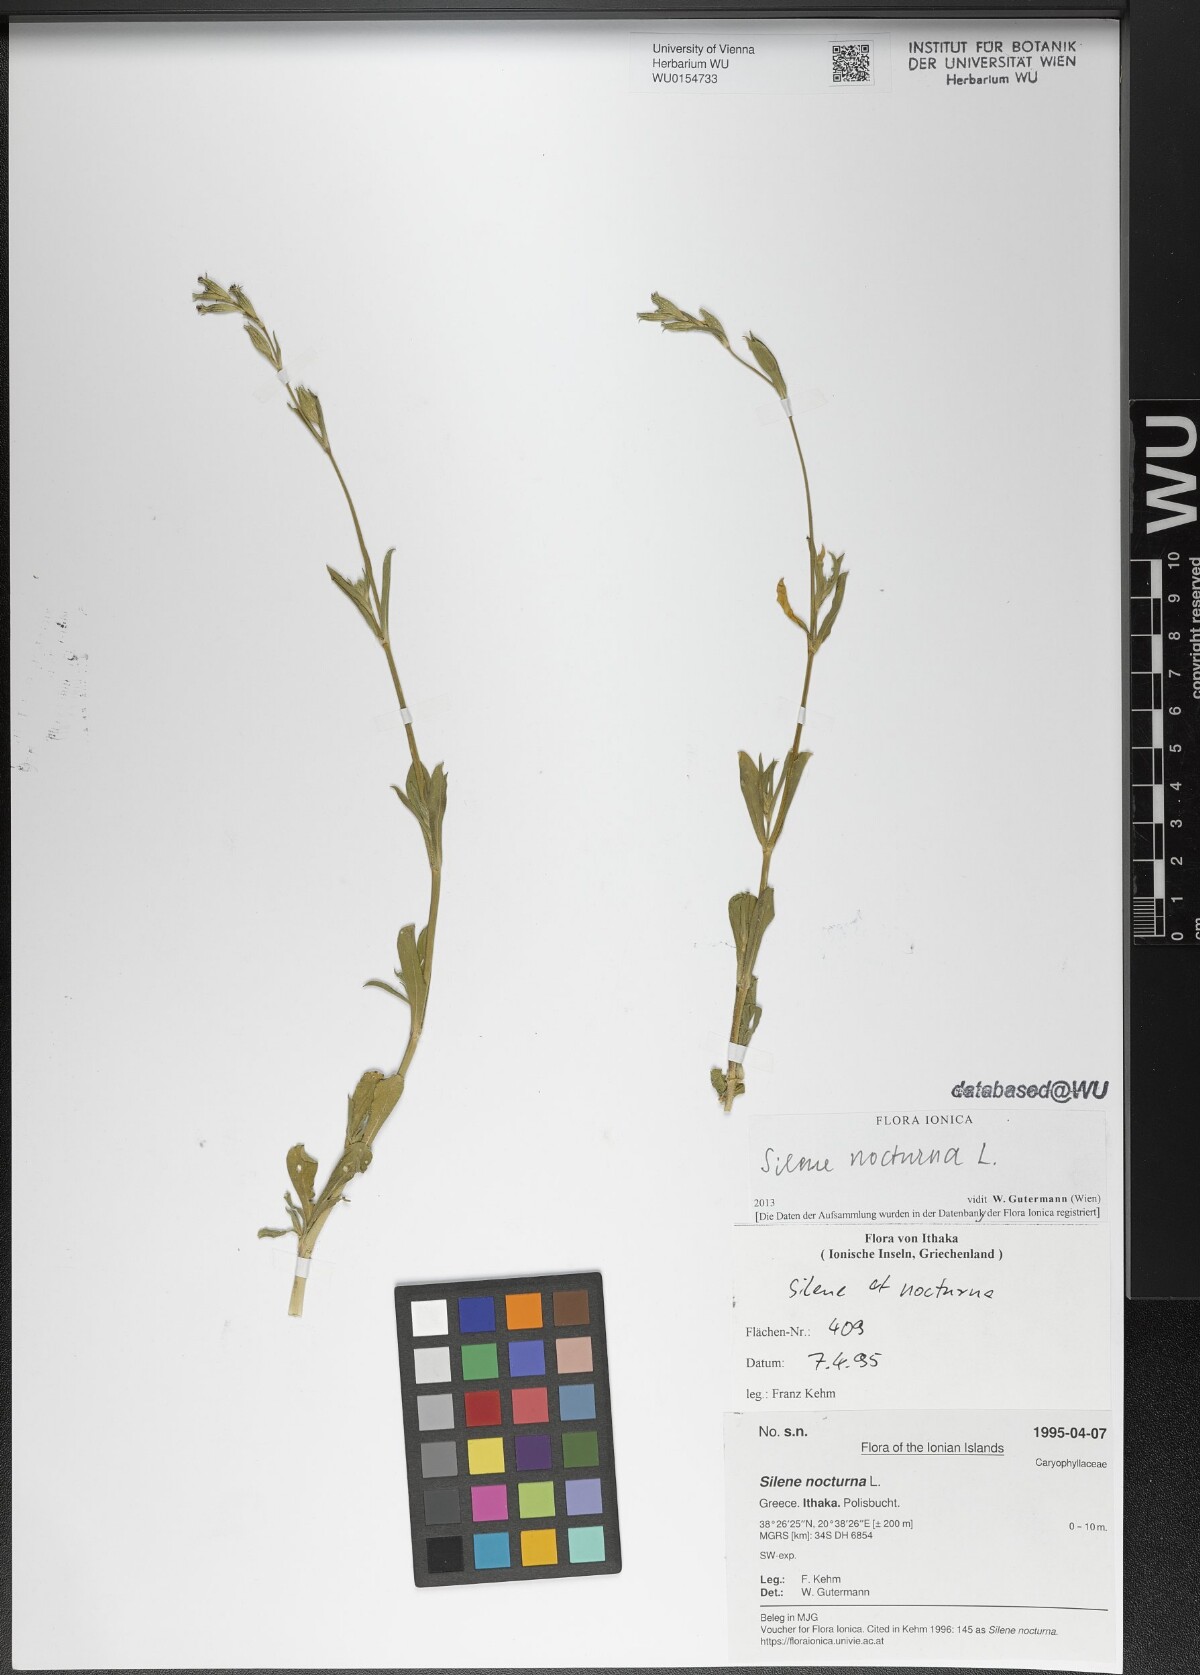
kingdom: Plantae
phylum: Tracheophyta
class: Magnoliopsida
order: Caryophyllales
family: Caryophyllaceae
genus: Silene
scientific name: Silene nocturna
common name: Mediterranean catchfly
